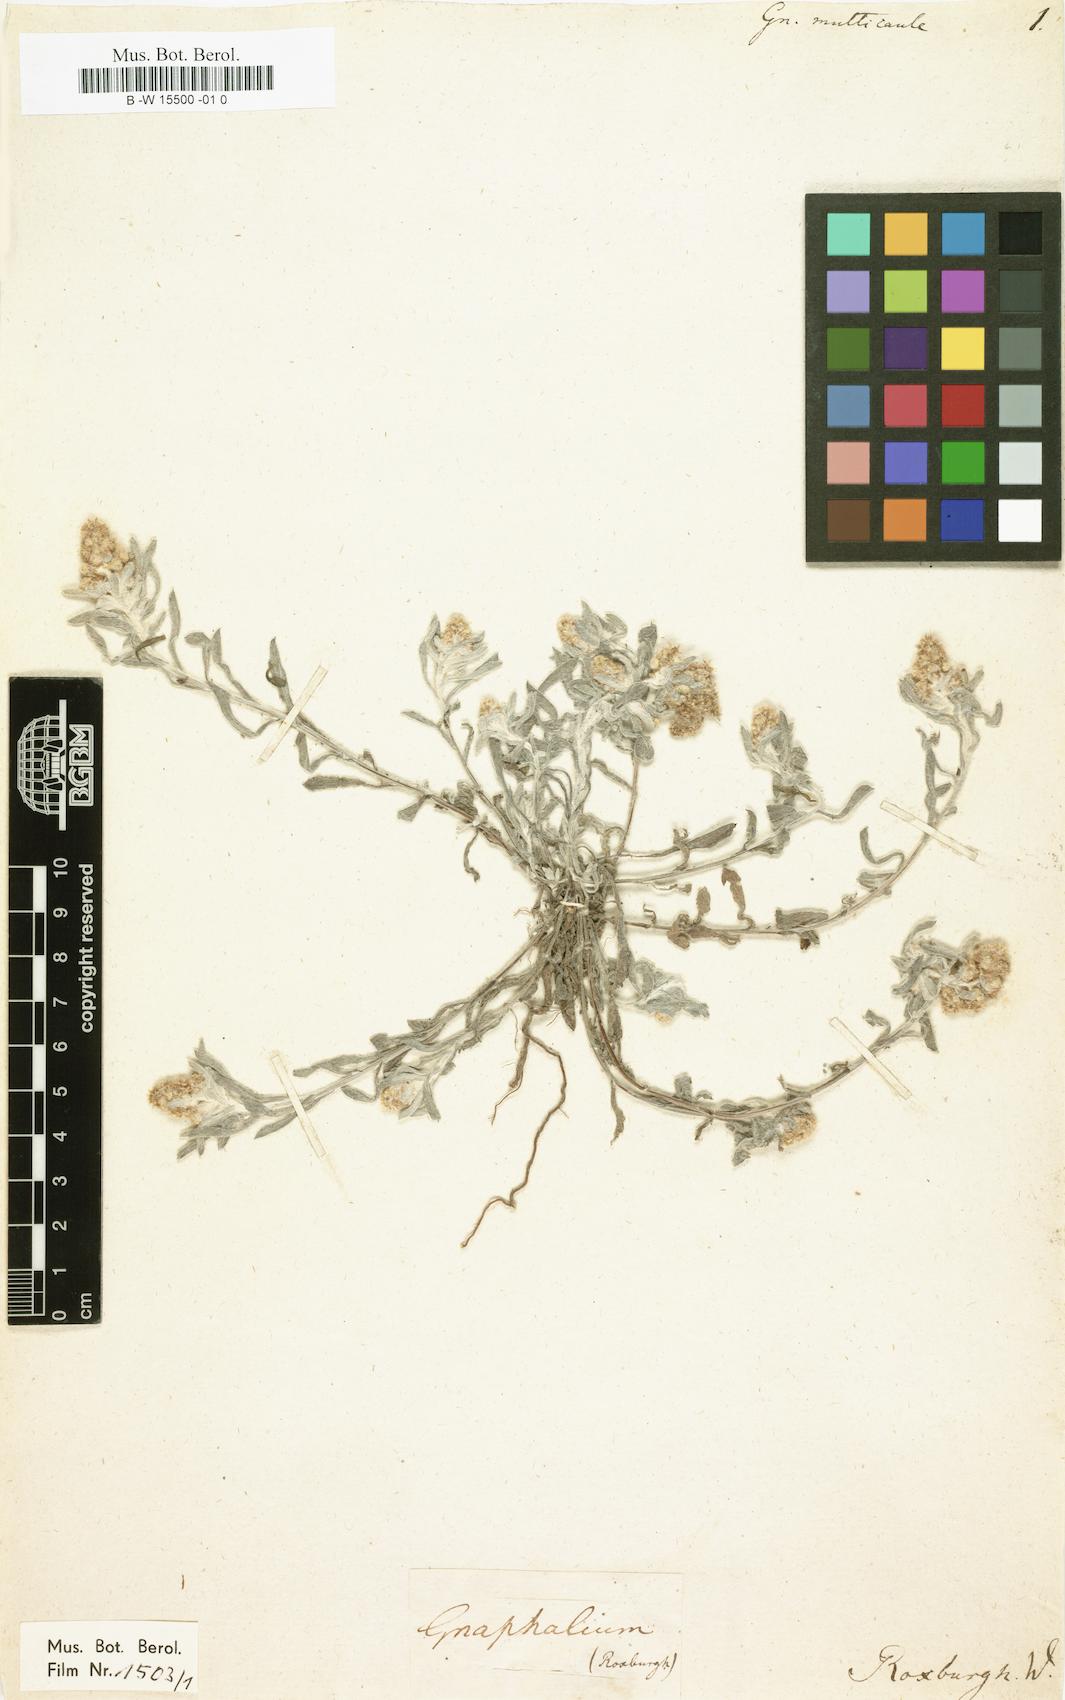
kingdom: Plantae
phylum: Tracheophyta
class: Magnoliopsida
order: Asterales
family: Asteraceae
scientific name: Asteraceae
